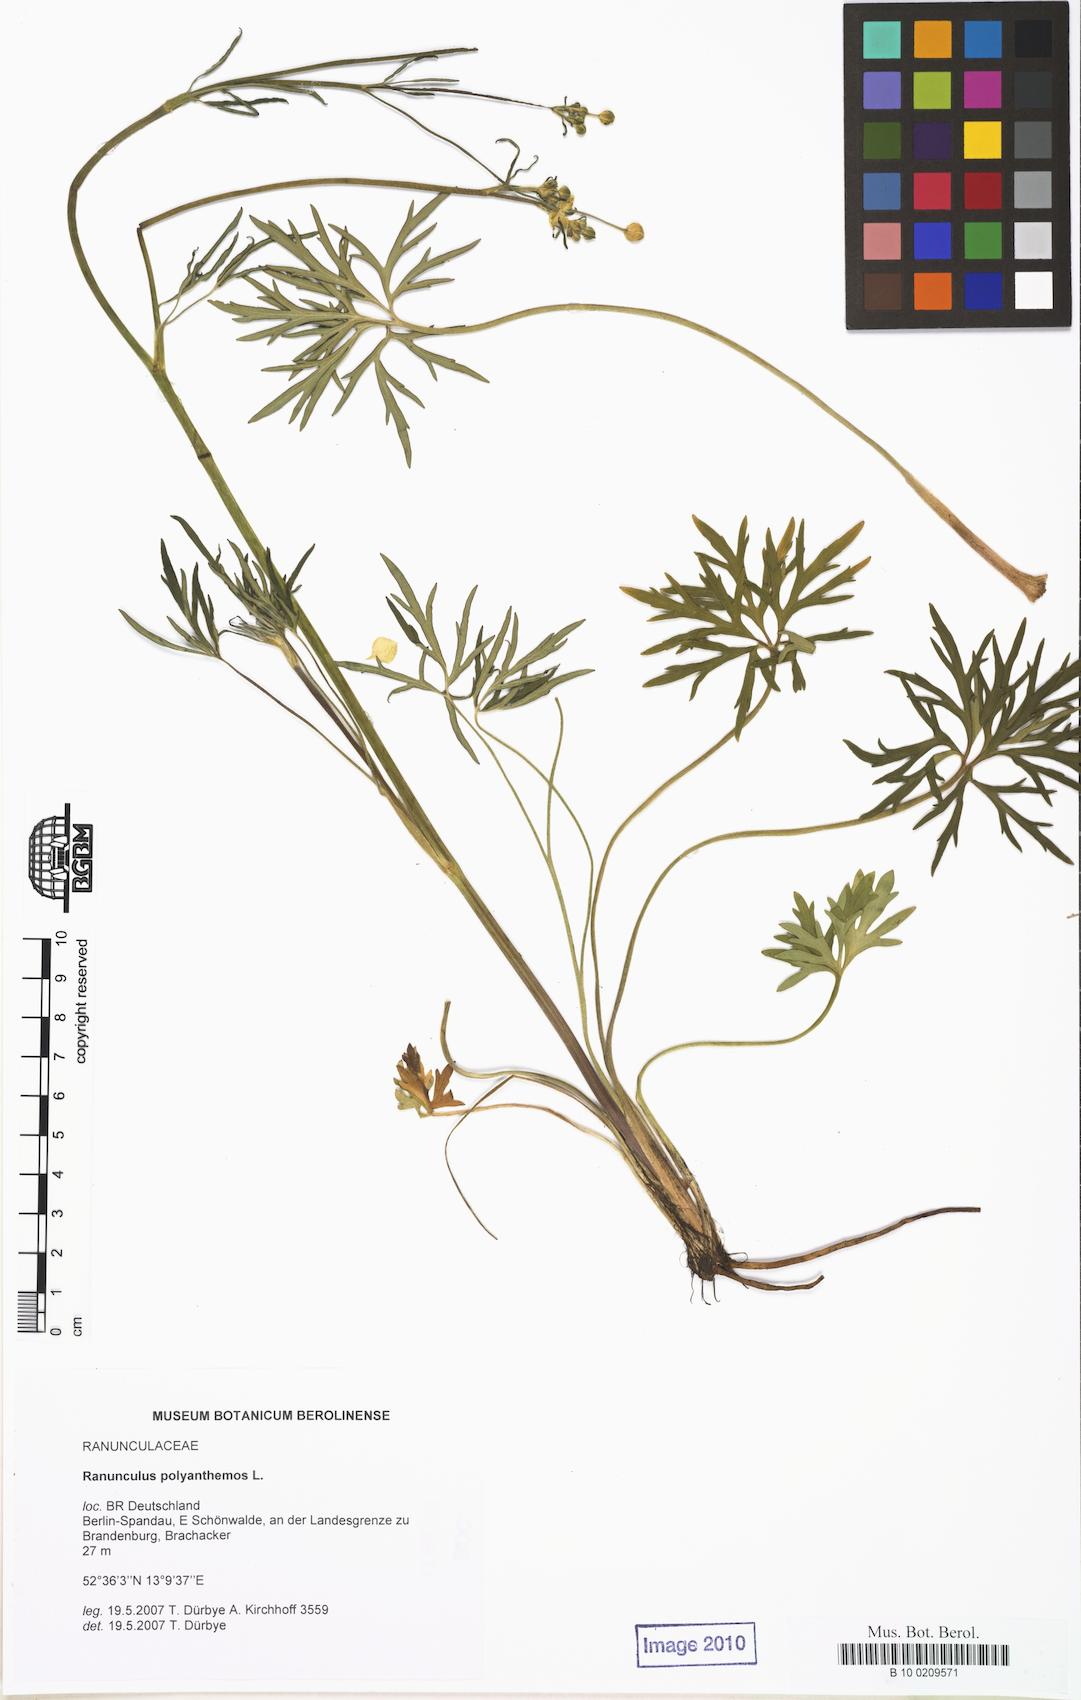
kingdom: Plantae
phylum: Tracheophyta
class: Magnoliopsida
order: Ranunculales
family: Ranunculaceae
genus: Ranunculus
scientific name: Ranunculus polyanthemos
